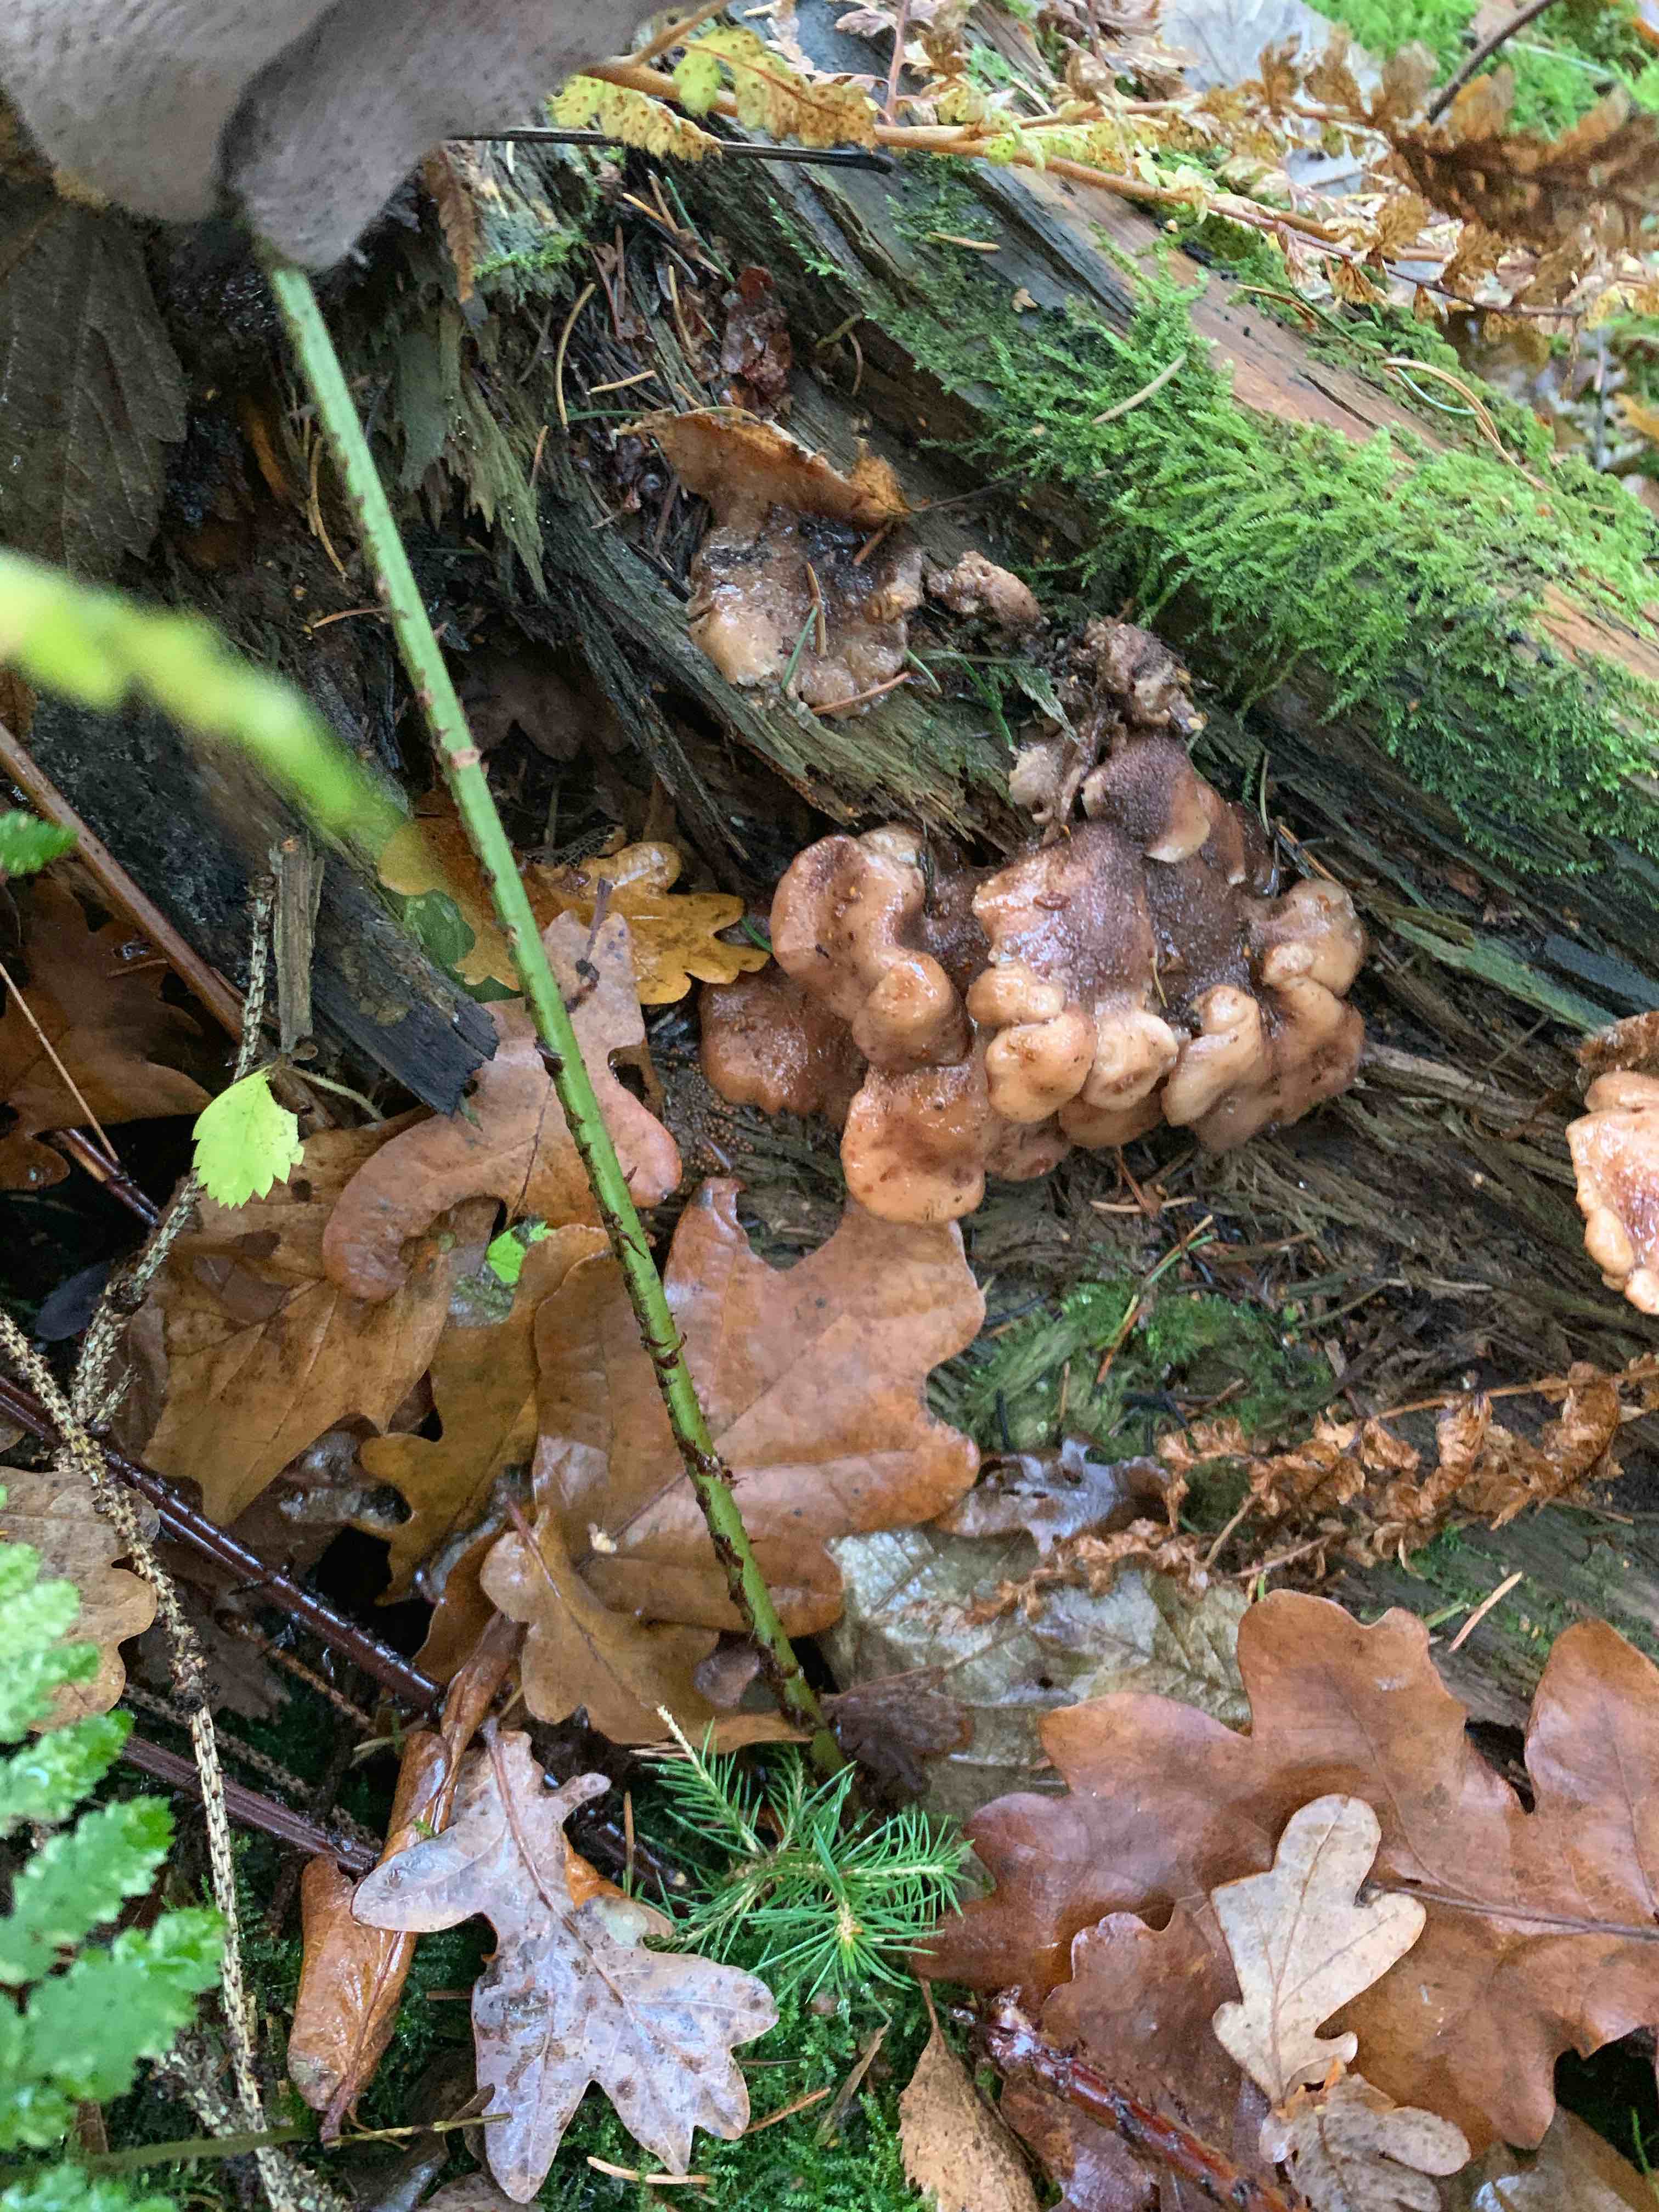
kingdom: Fungi
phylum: Basidiomycota
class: Agaricomycetes
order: Russulales
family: Auriscalpiaceae
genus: Lentinellus
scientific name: Lentinellus ursinus
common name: børstehåret savbladhat
